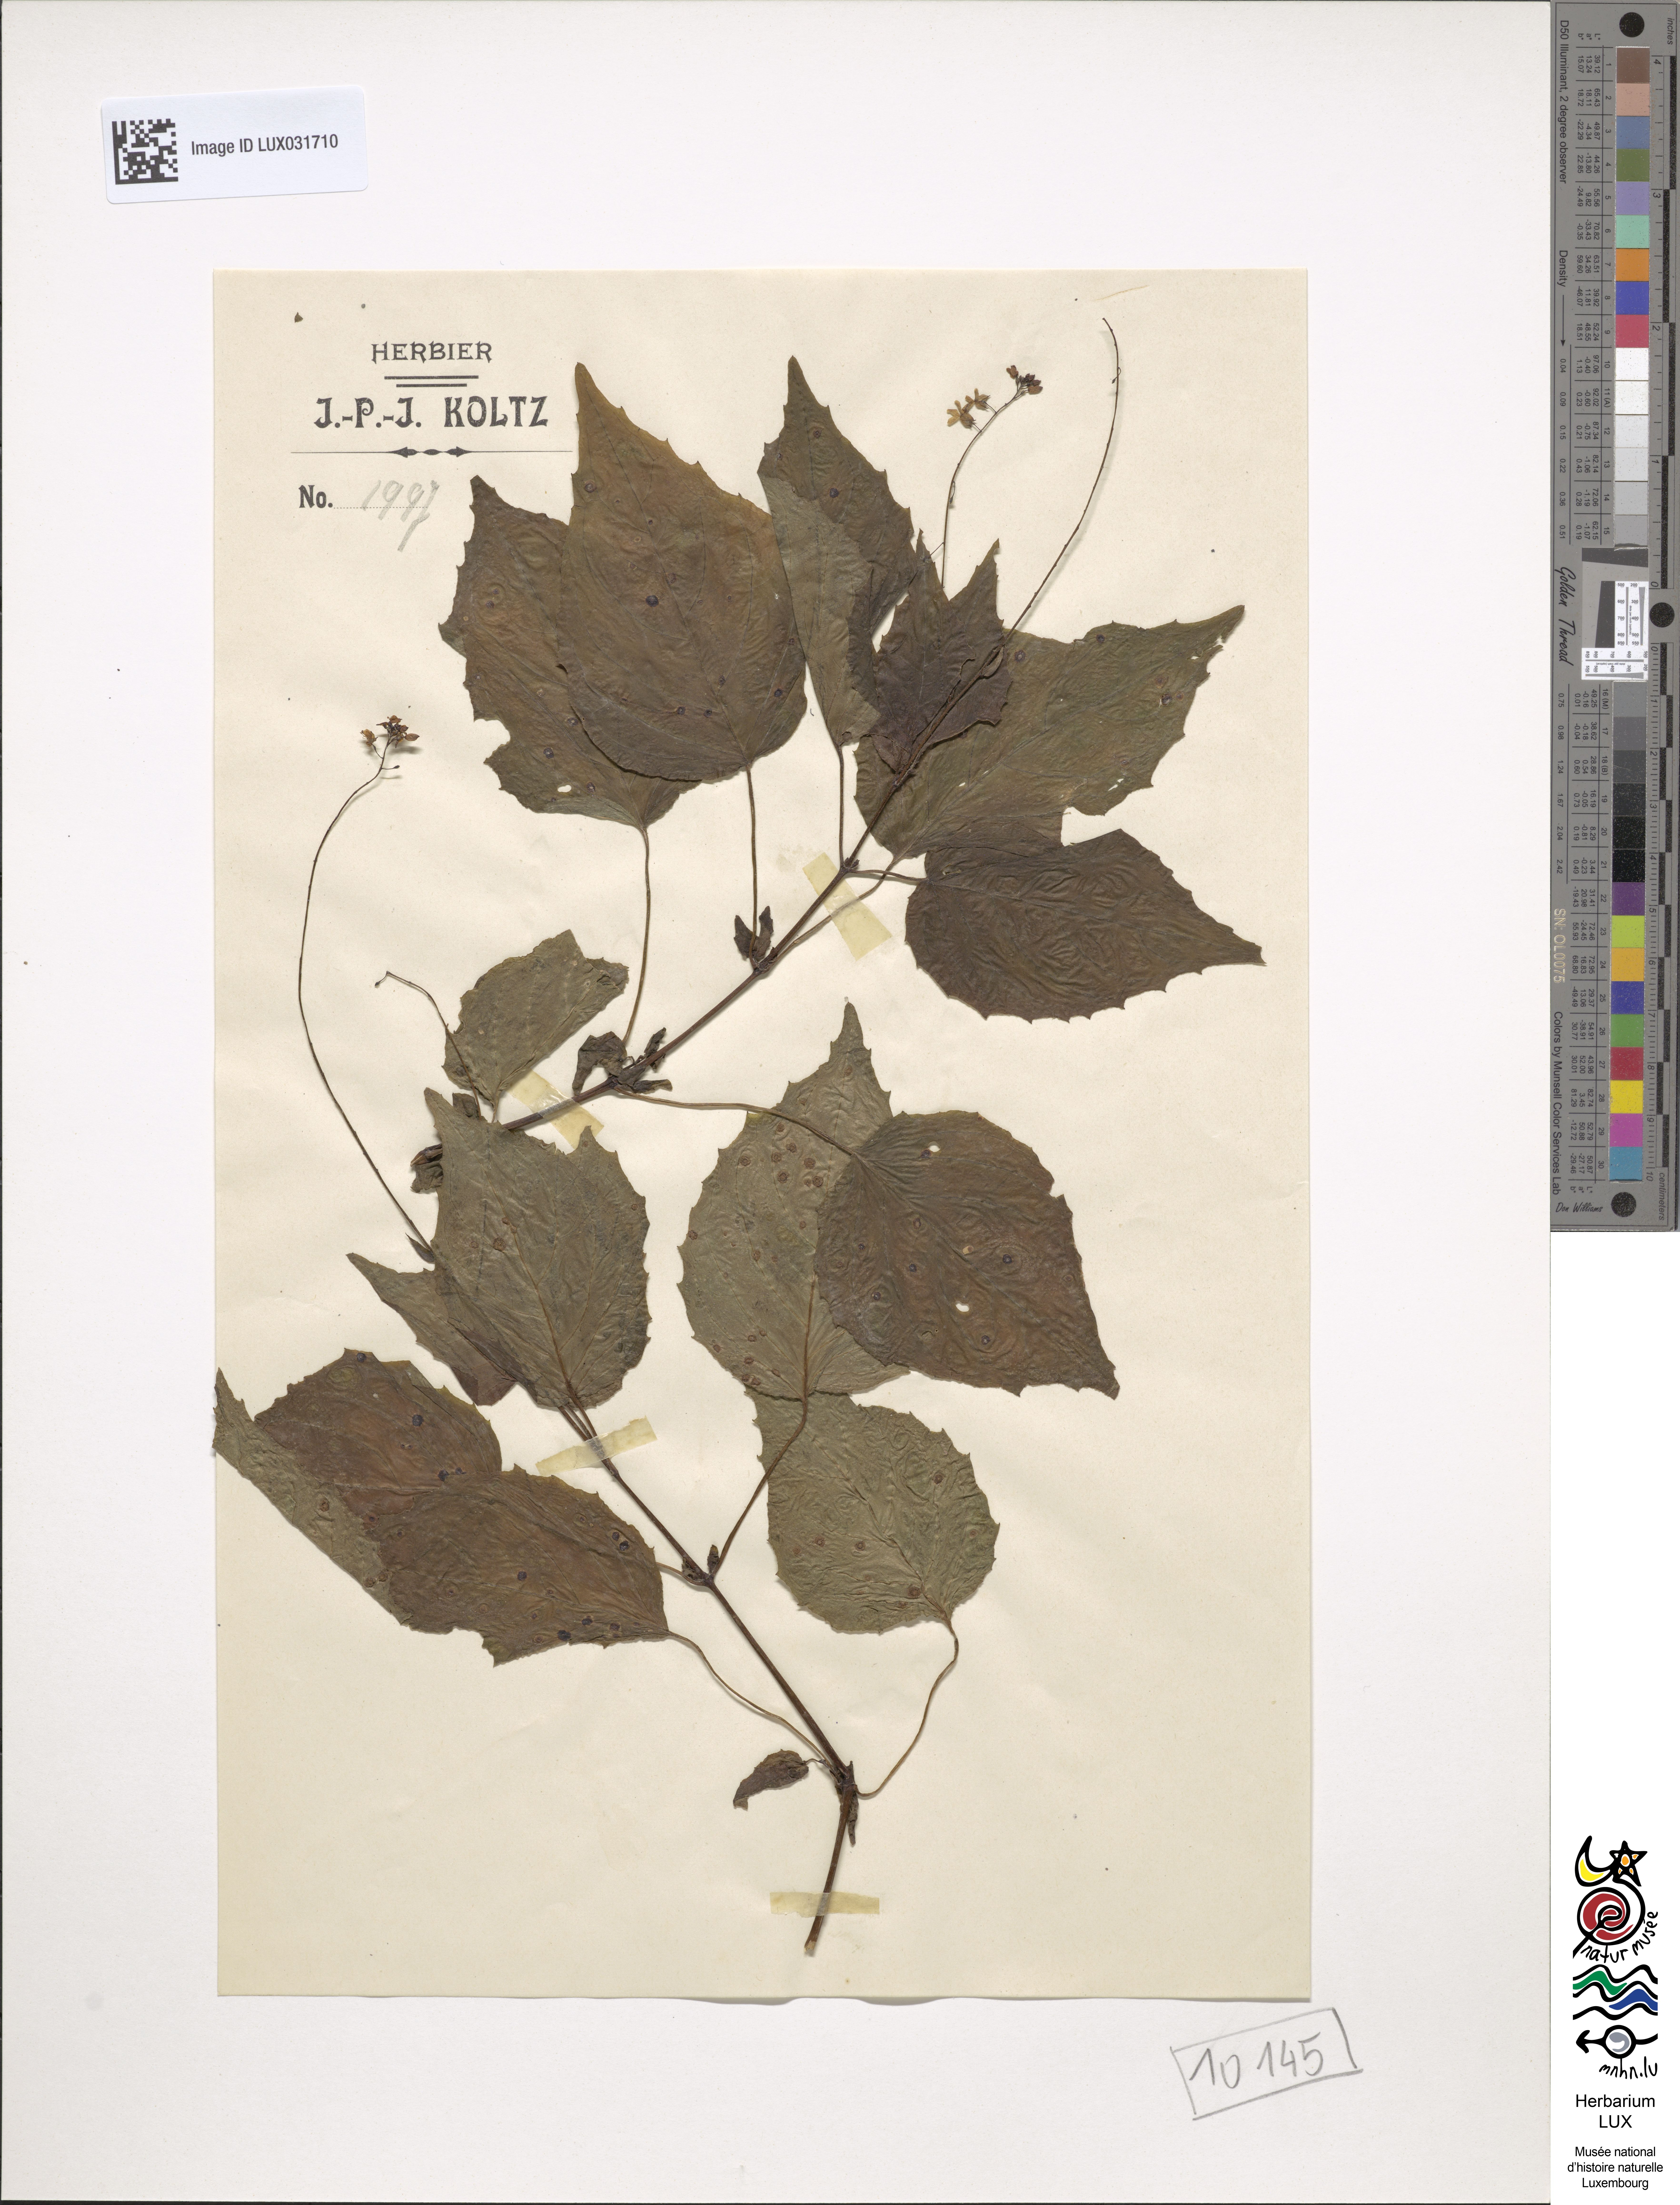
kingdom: Plantae
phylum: Tracheophyta
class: Magnoliopsida
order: Myrtales
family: Onagraceae
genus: Circaea
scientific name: Circaea intermedia
